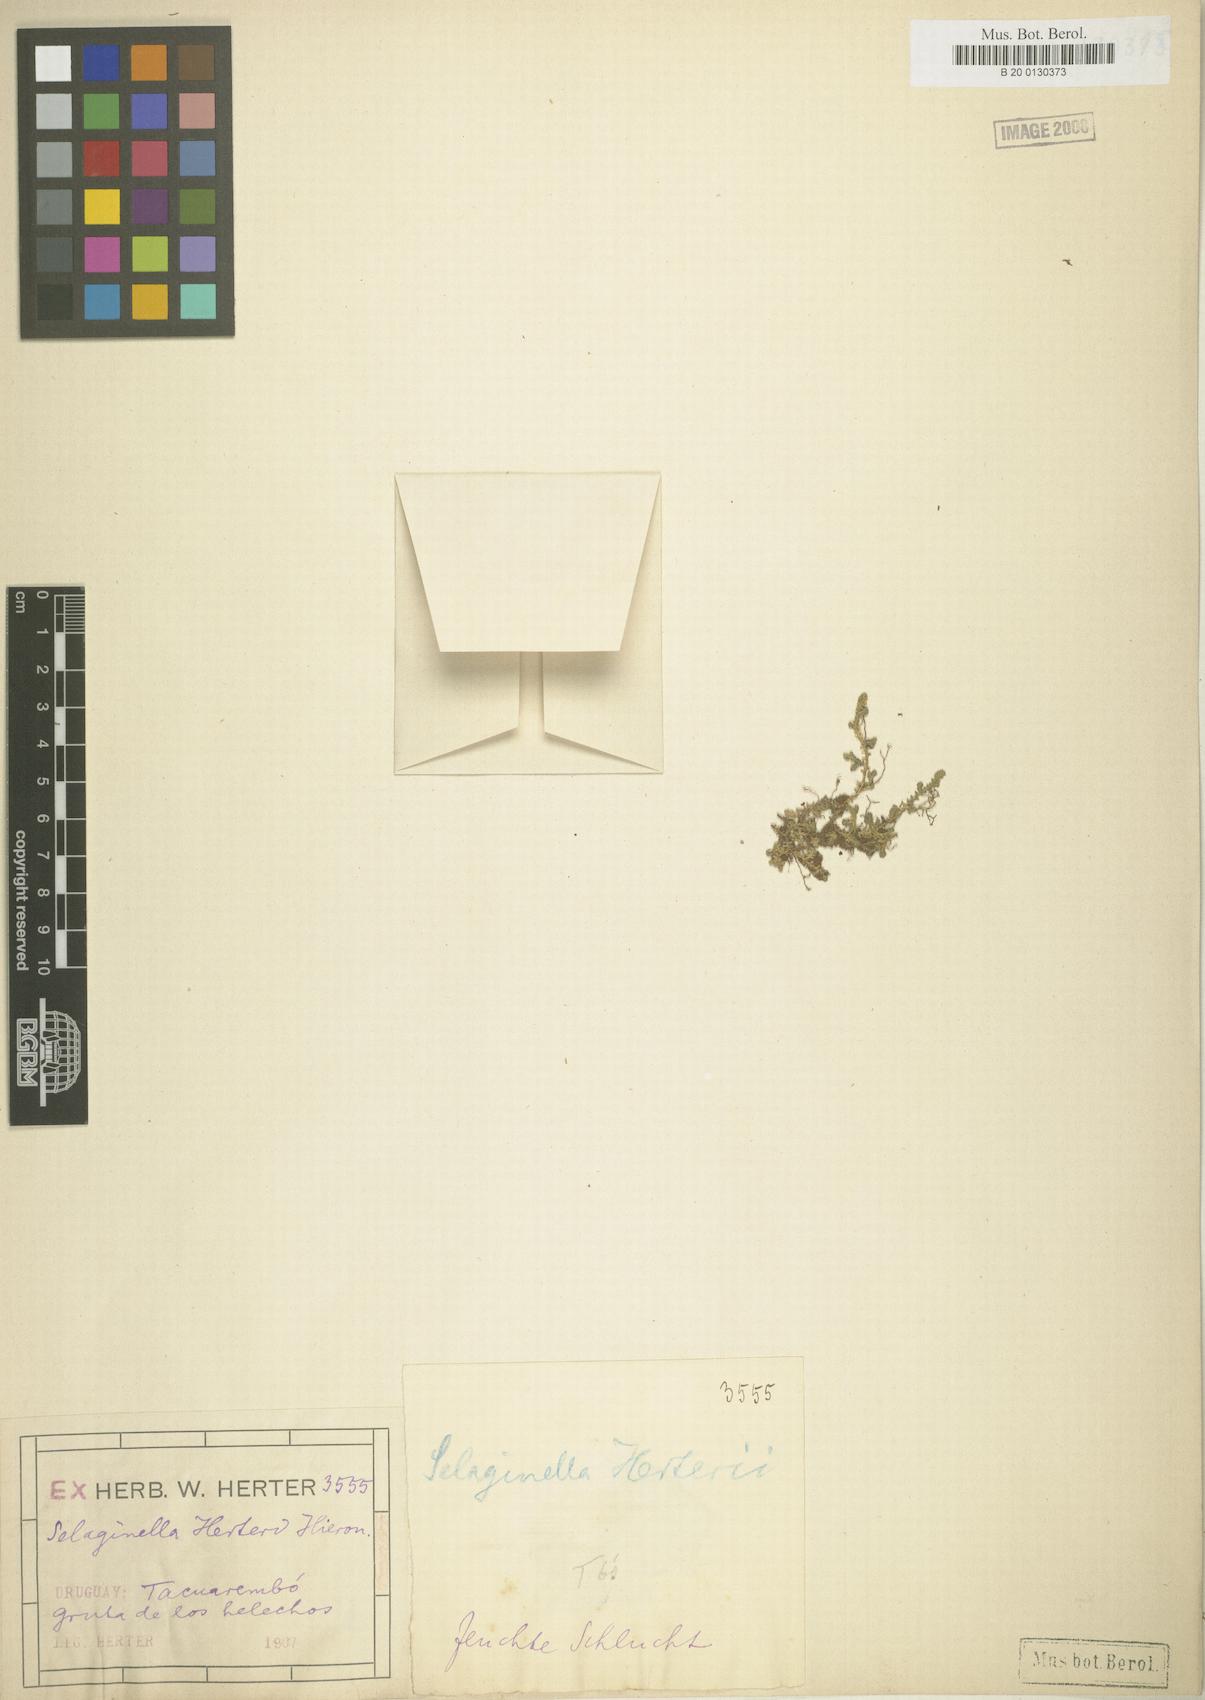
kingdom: Plantae
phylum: Tracheophyta
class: Lycopodiopsida
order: Selaginellales
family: Selaginellaceae
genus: Selaginella
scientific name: Selaginella marginata
